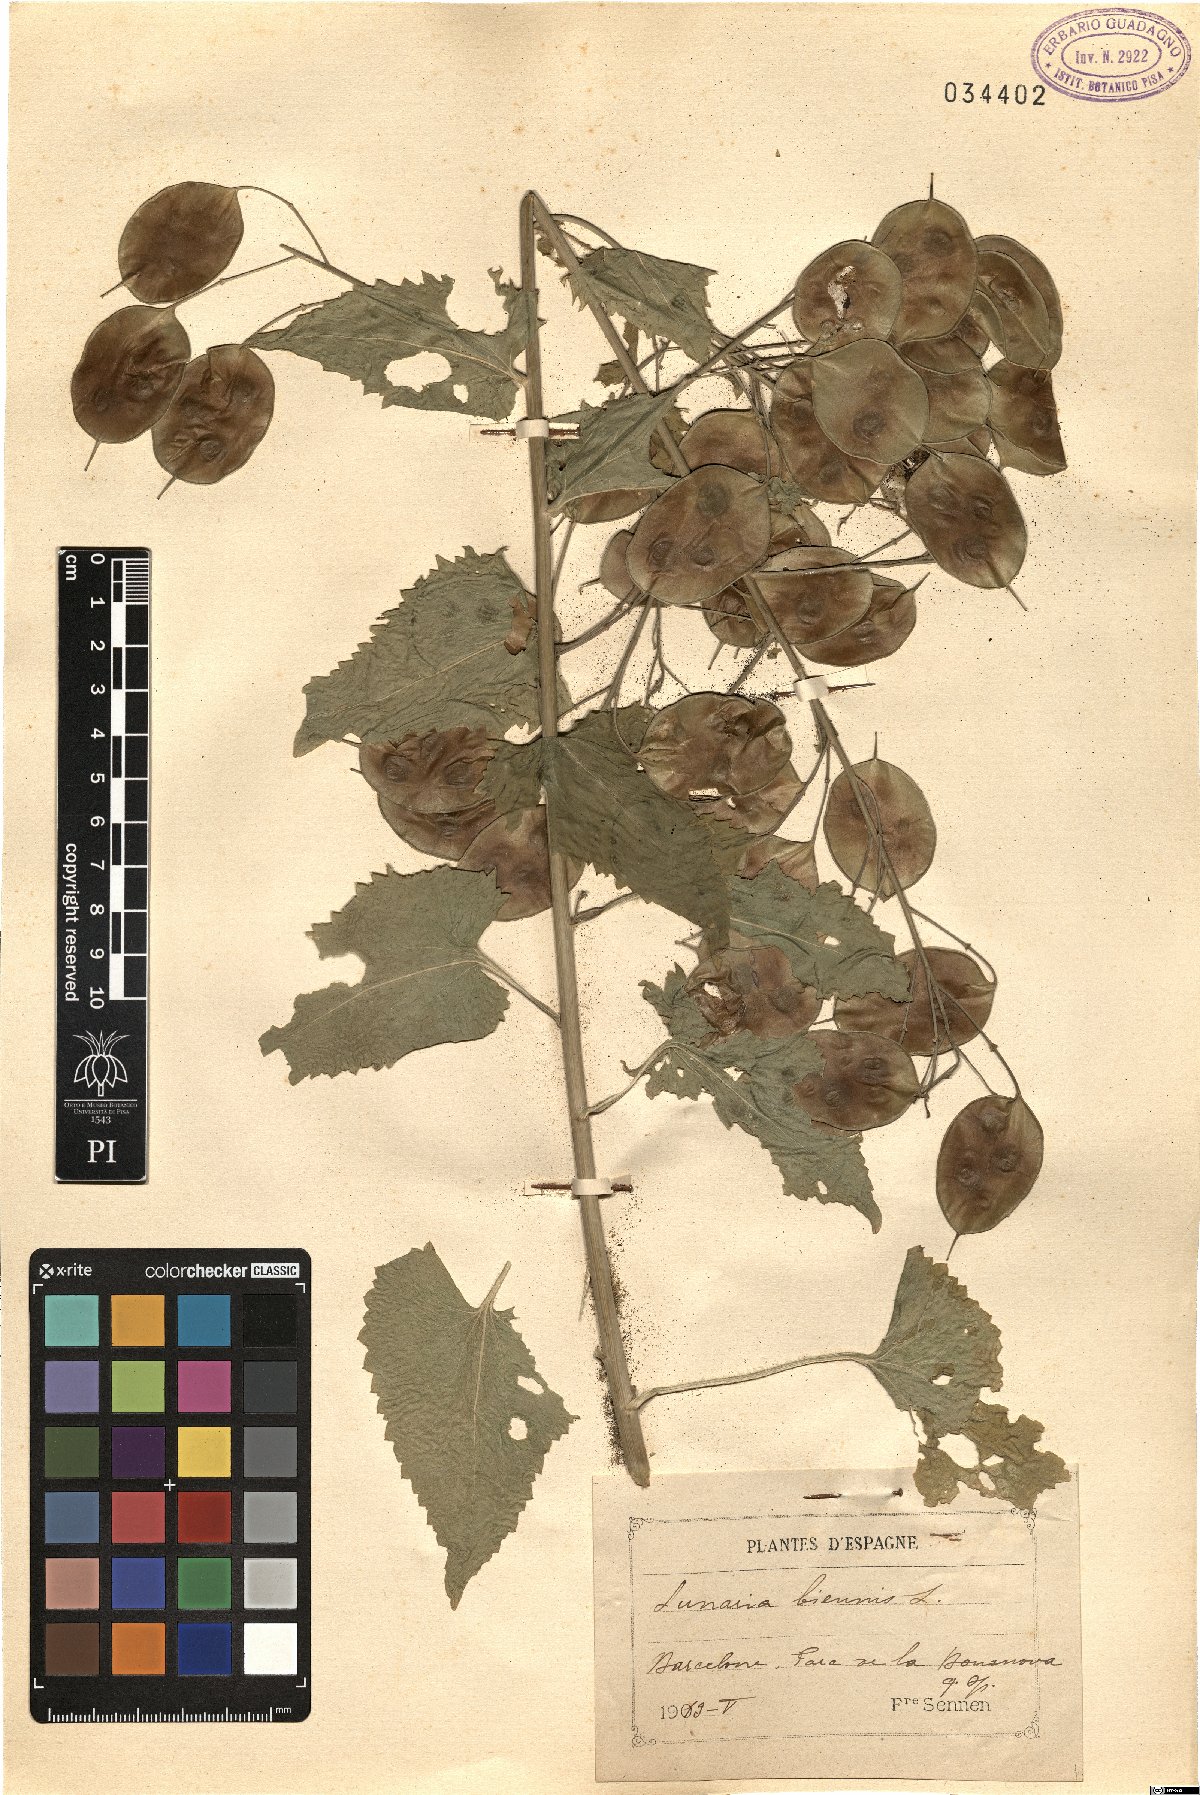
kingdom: Plantae
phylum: Tracheophyta
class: Magnoliopsida
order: Brassicales
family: Brassicaceae
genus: Lunaria
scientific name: Lunaria annua
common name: Honesty
